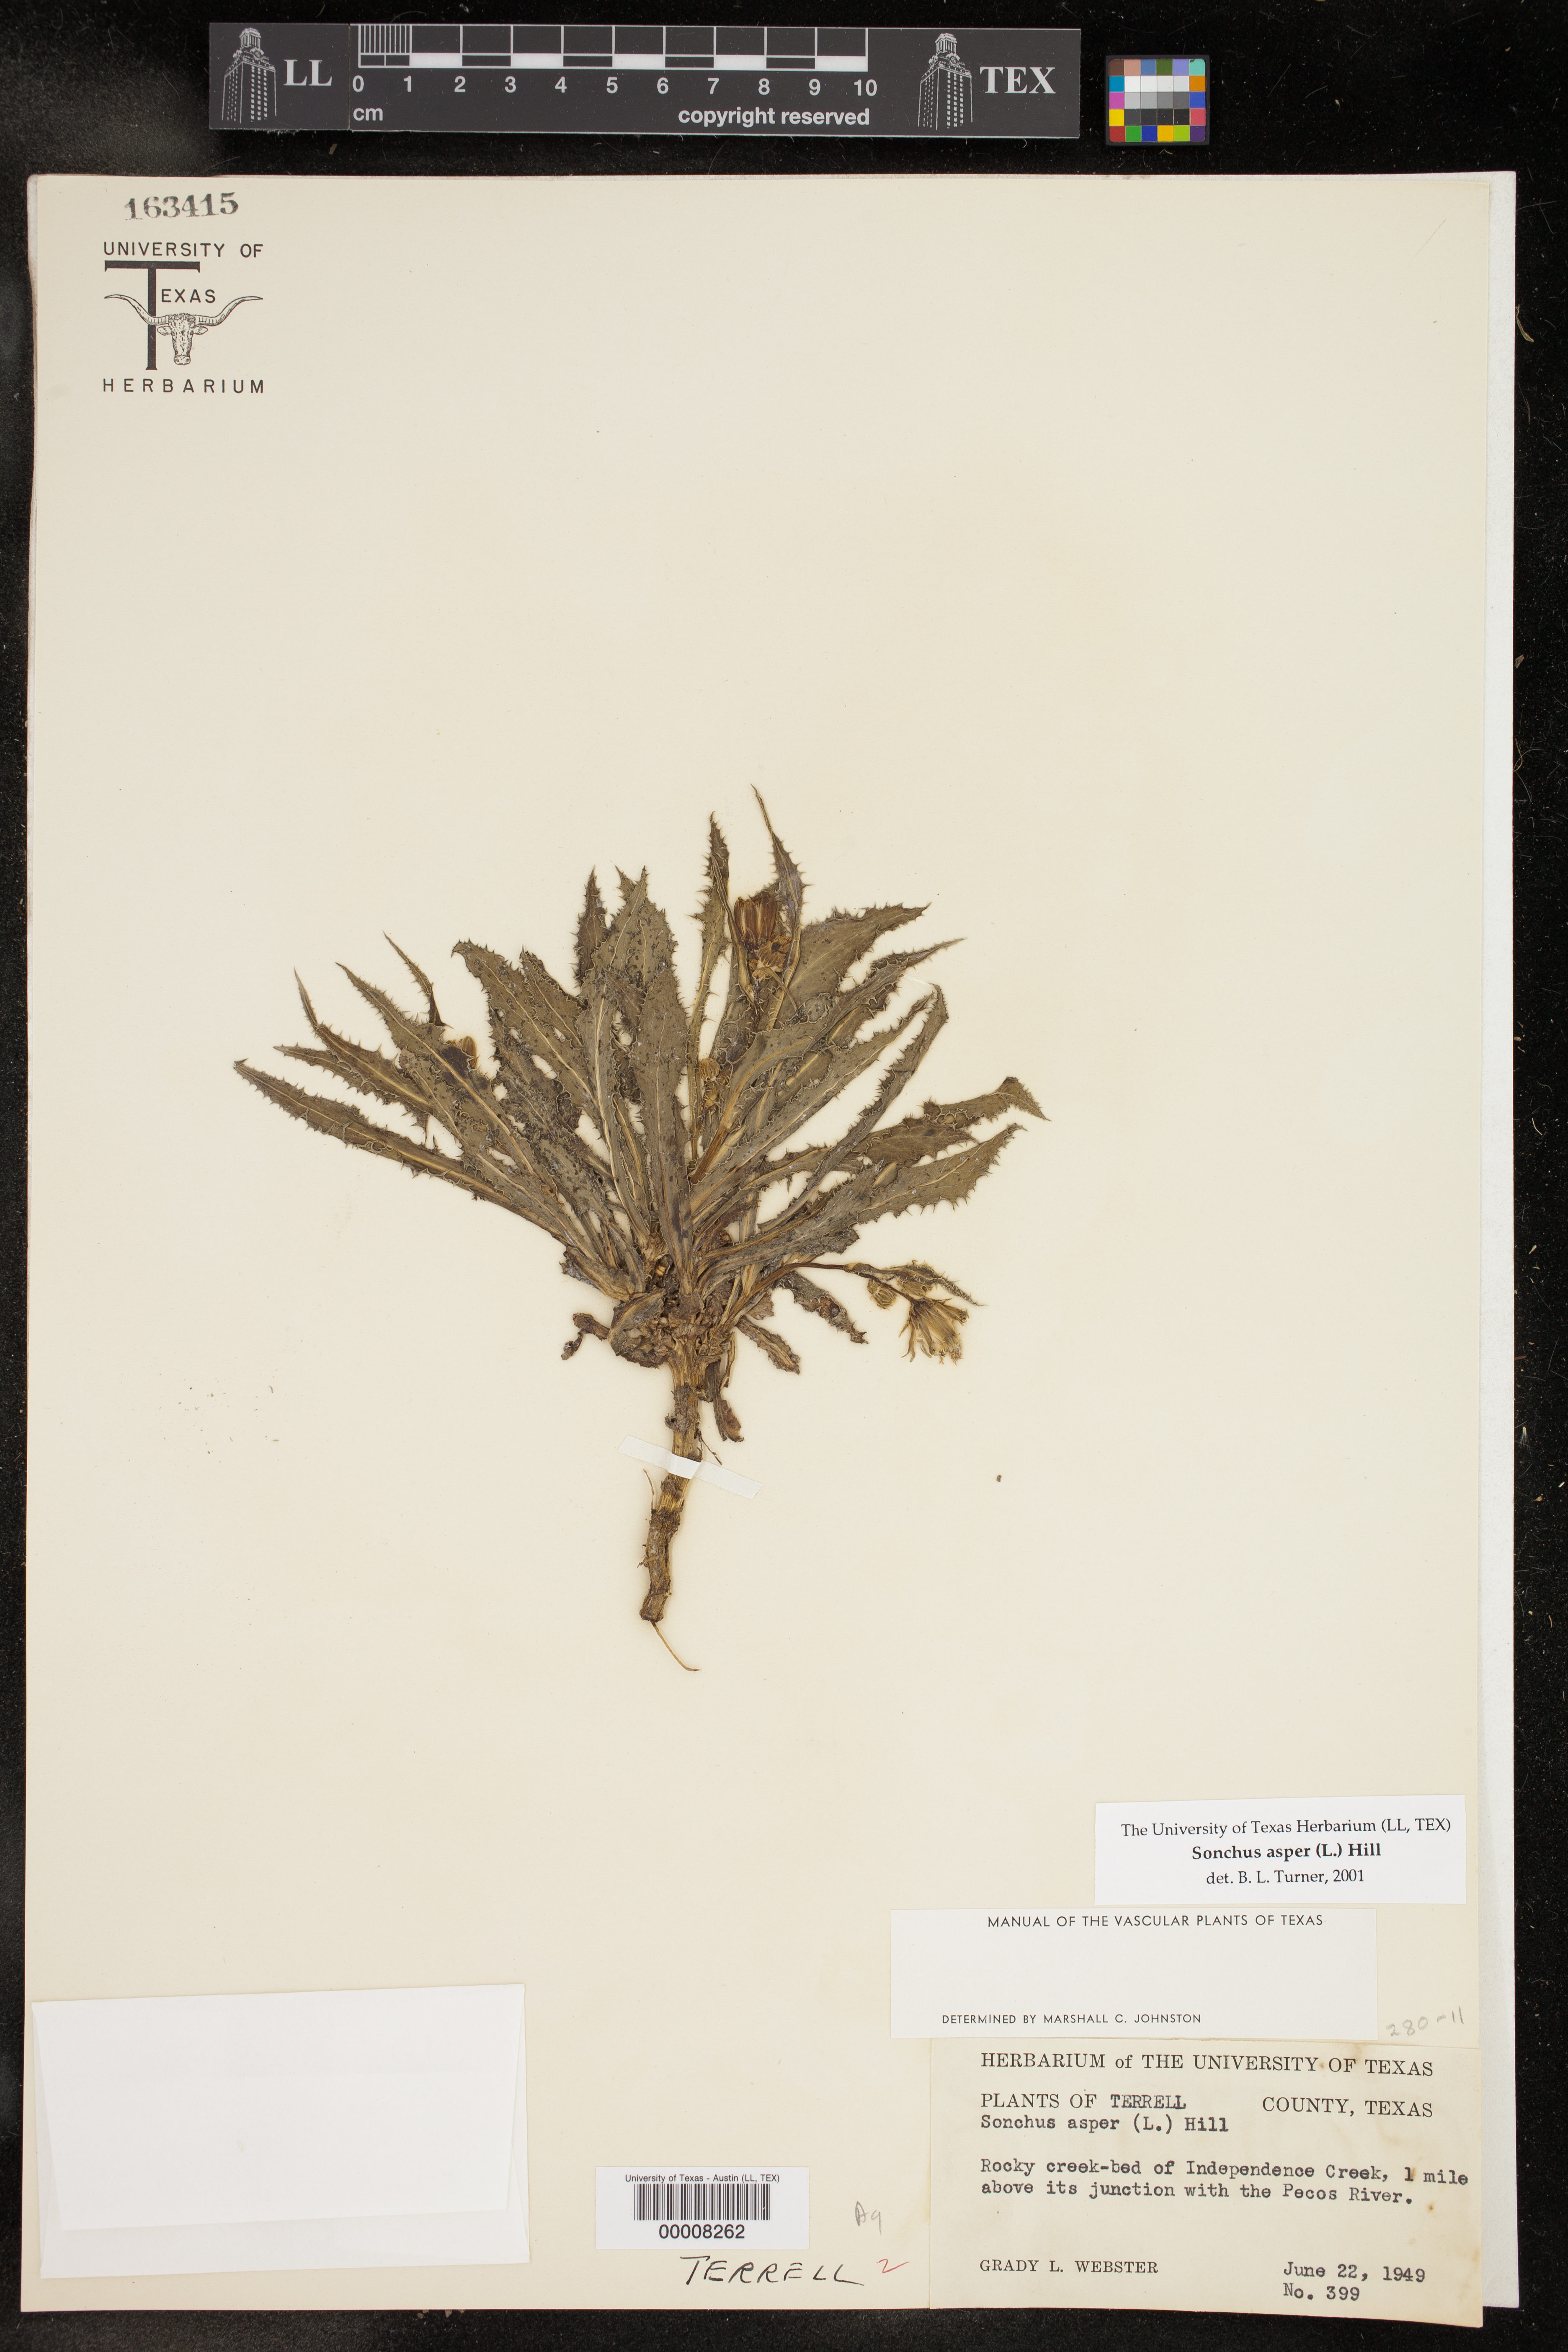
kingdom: Plantae
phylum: Tracheophyta
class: Magnoliopsida
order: Asterales
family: Asteraceae
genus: Sonchus
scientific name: Sonchus asper
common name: Prickly sow-thistle
